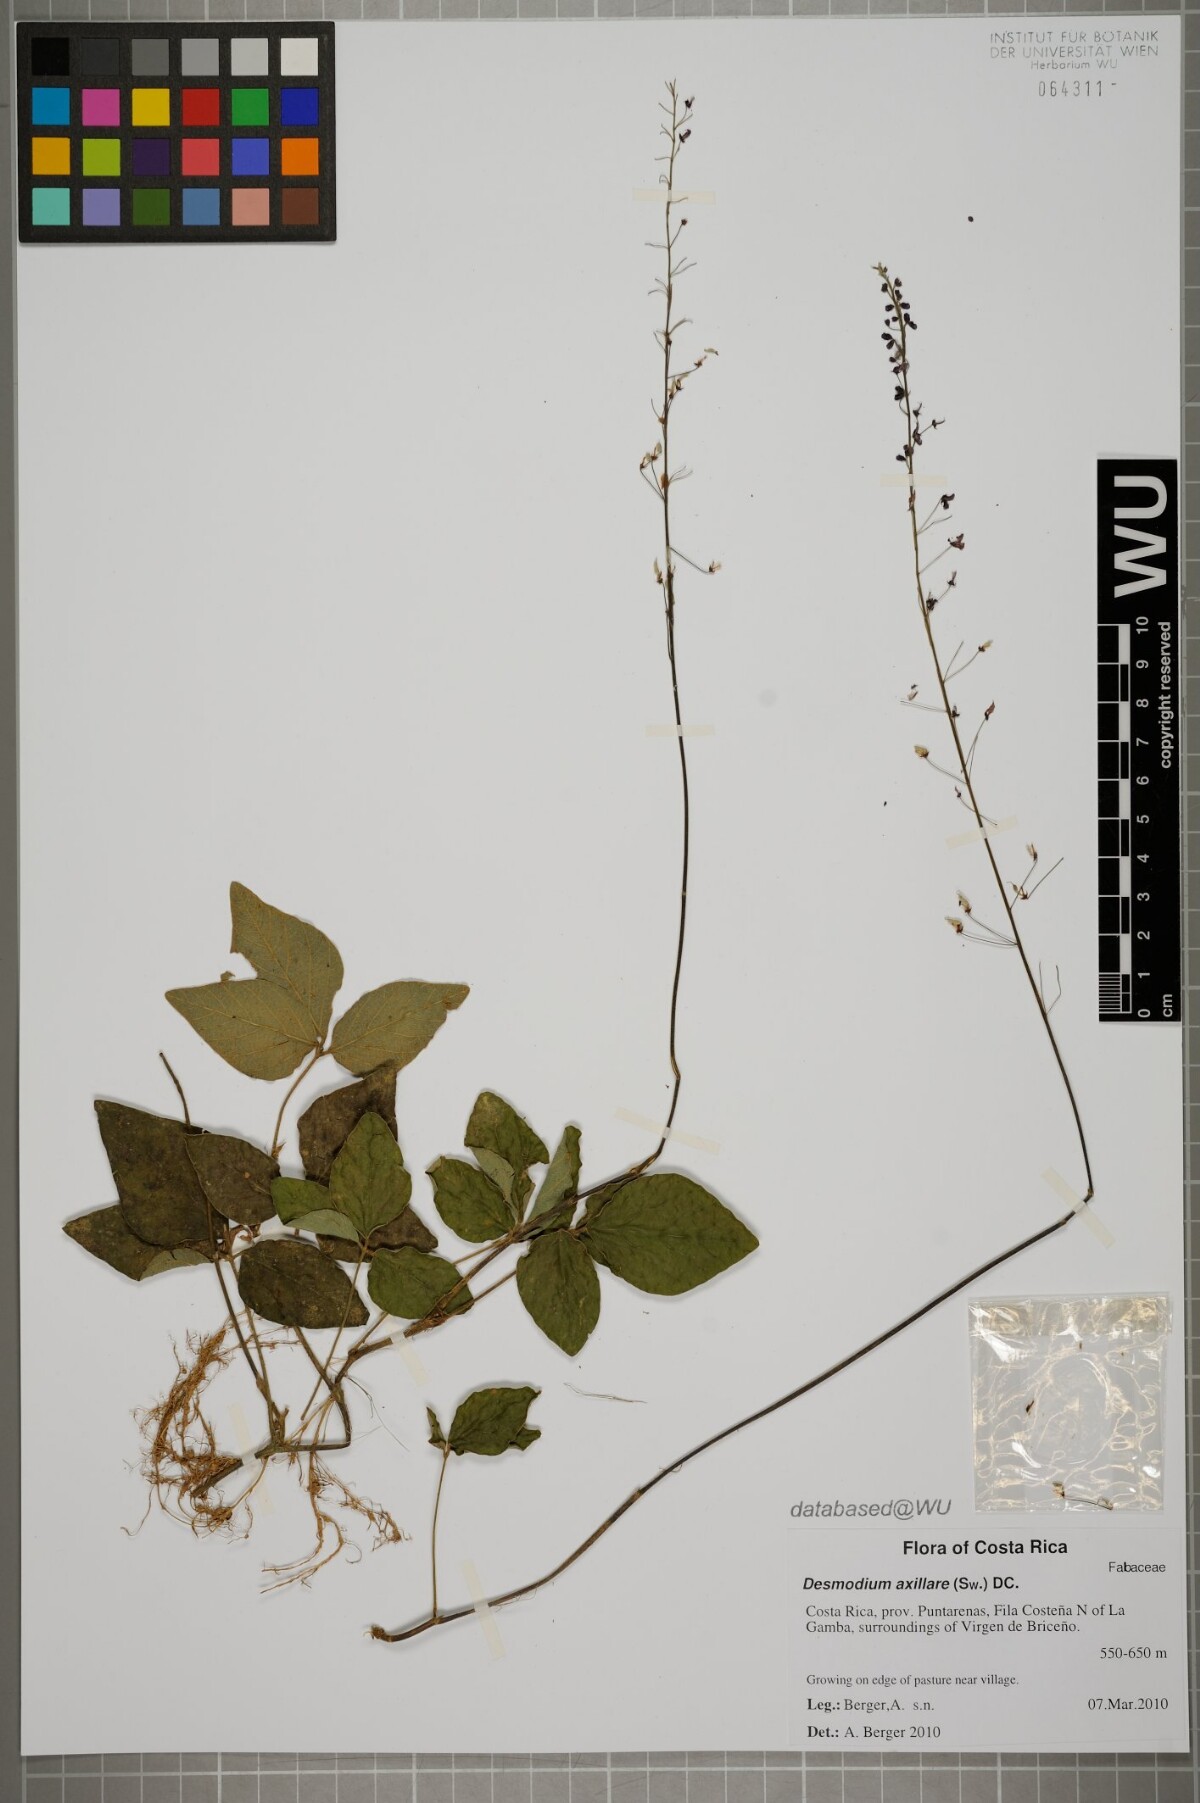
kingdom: Plantae
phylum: Tracheophyta
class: Magnoliopsida
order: Fabales
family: Fabaceae
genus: Desmodium
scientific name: Desmodium axillare
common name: Wire with
